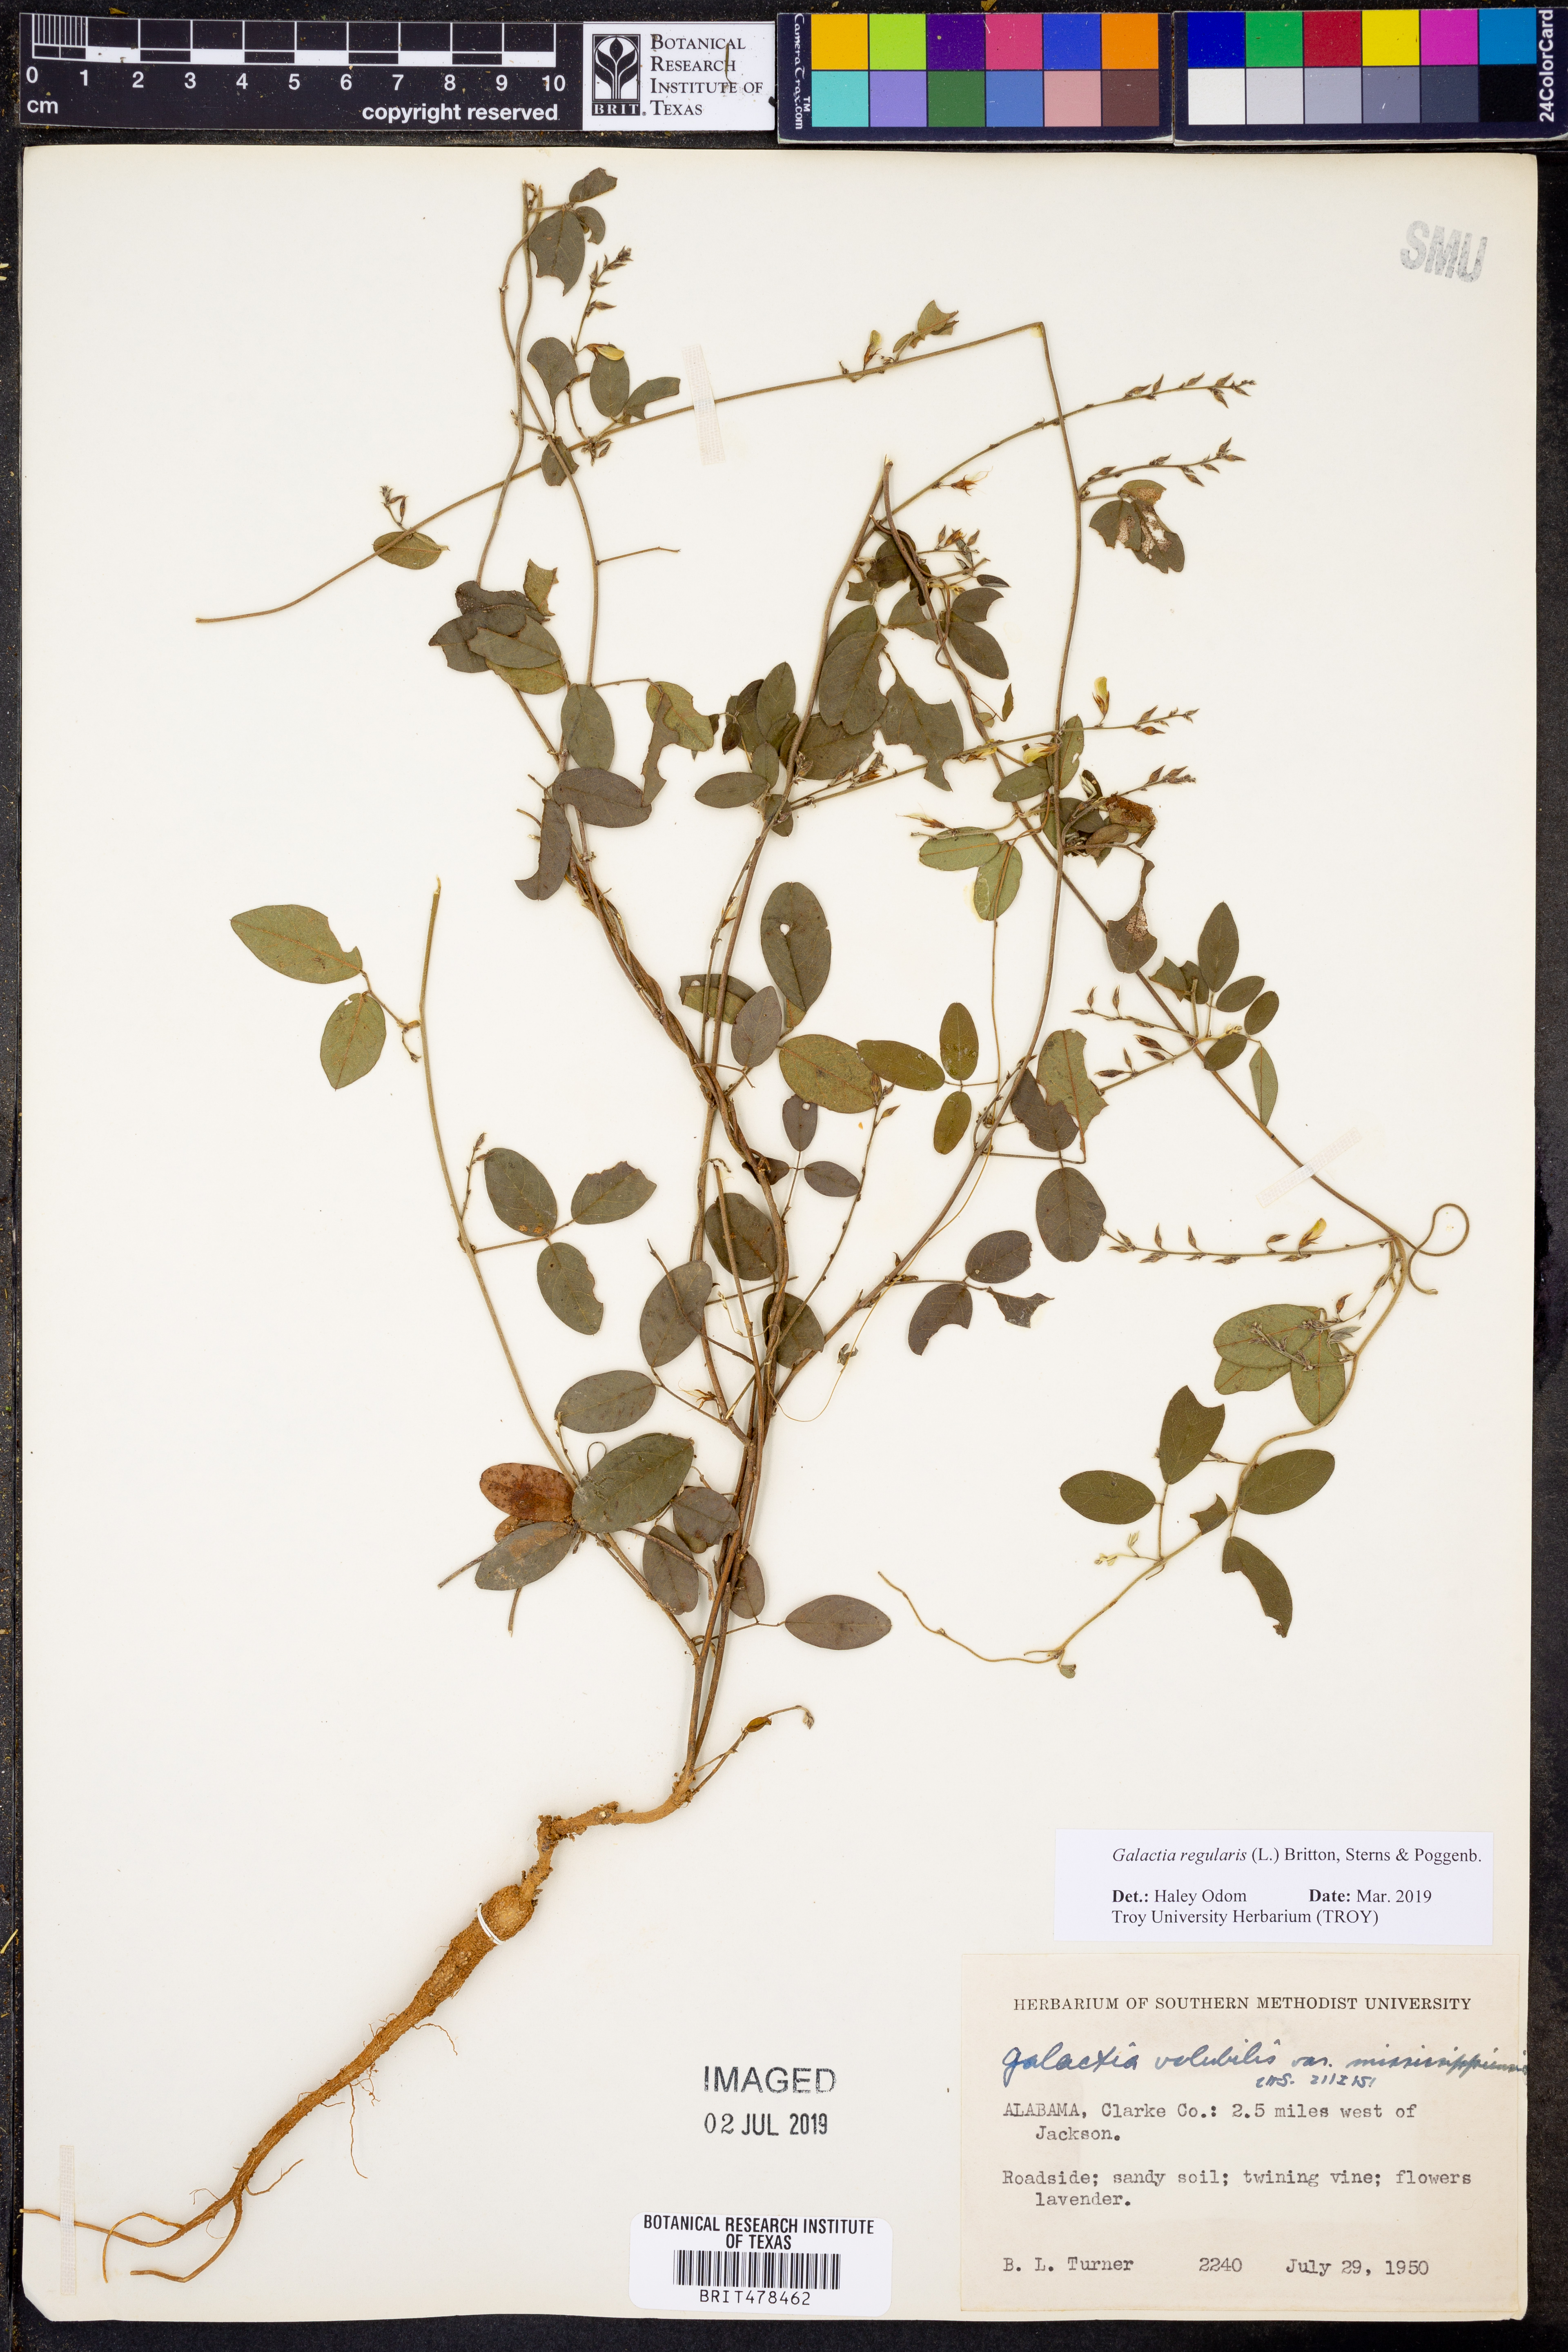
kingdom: Plantae
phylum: Tracheophyta
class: Magnoliopsida
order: Fabales
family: Fabaceae
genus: Galactia
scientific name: Galactia regularis
